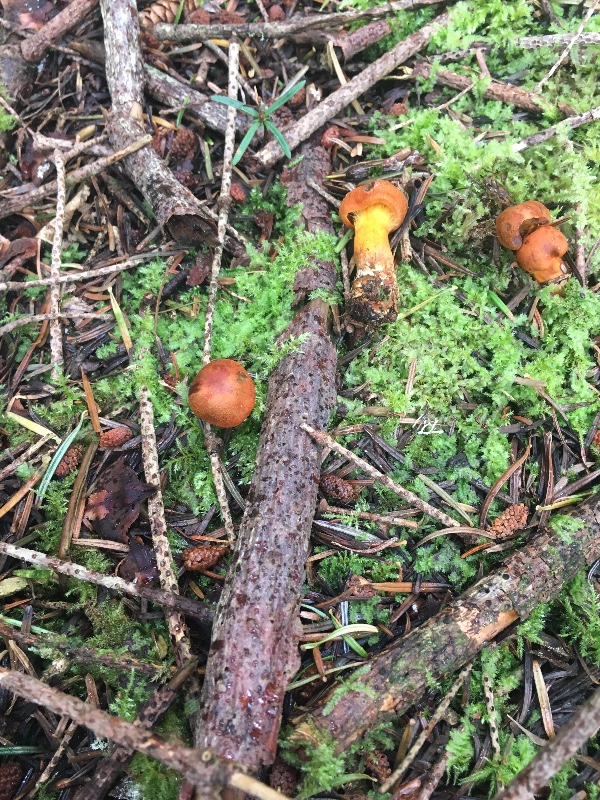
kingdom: Fungi
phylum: Basidiomycota
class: Agaricomycetes
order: Agaricales
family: Cortinariaceae
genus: Cortinarius
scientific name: Cortinarius malicorius
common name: grønkødet slørhat
